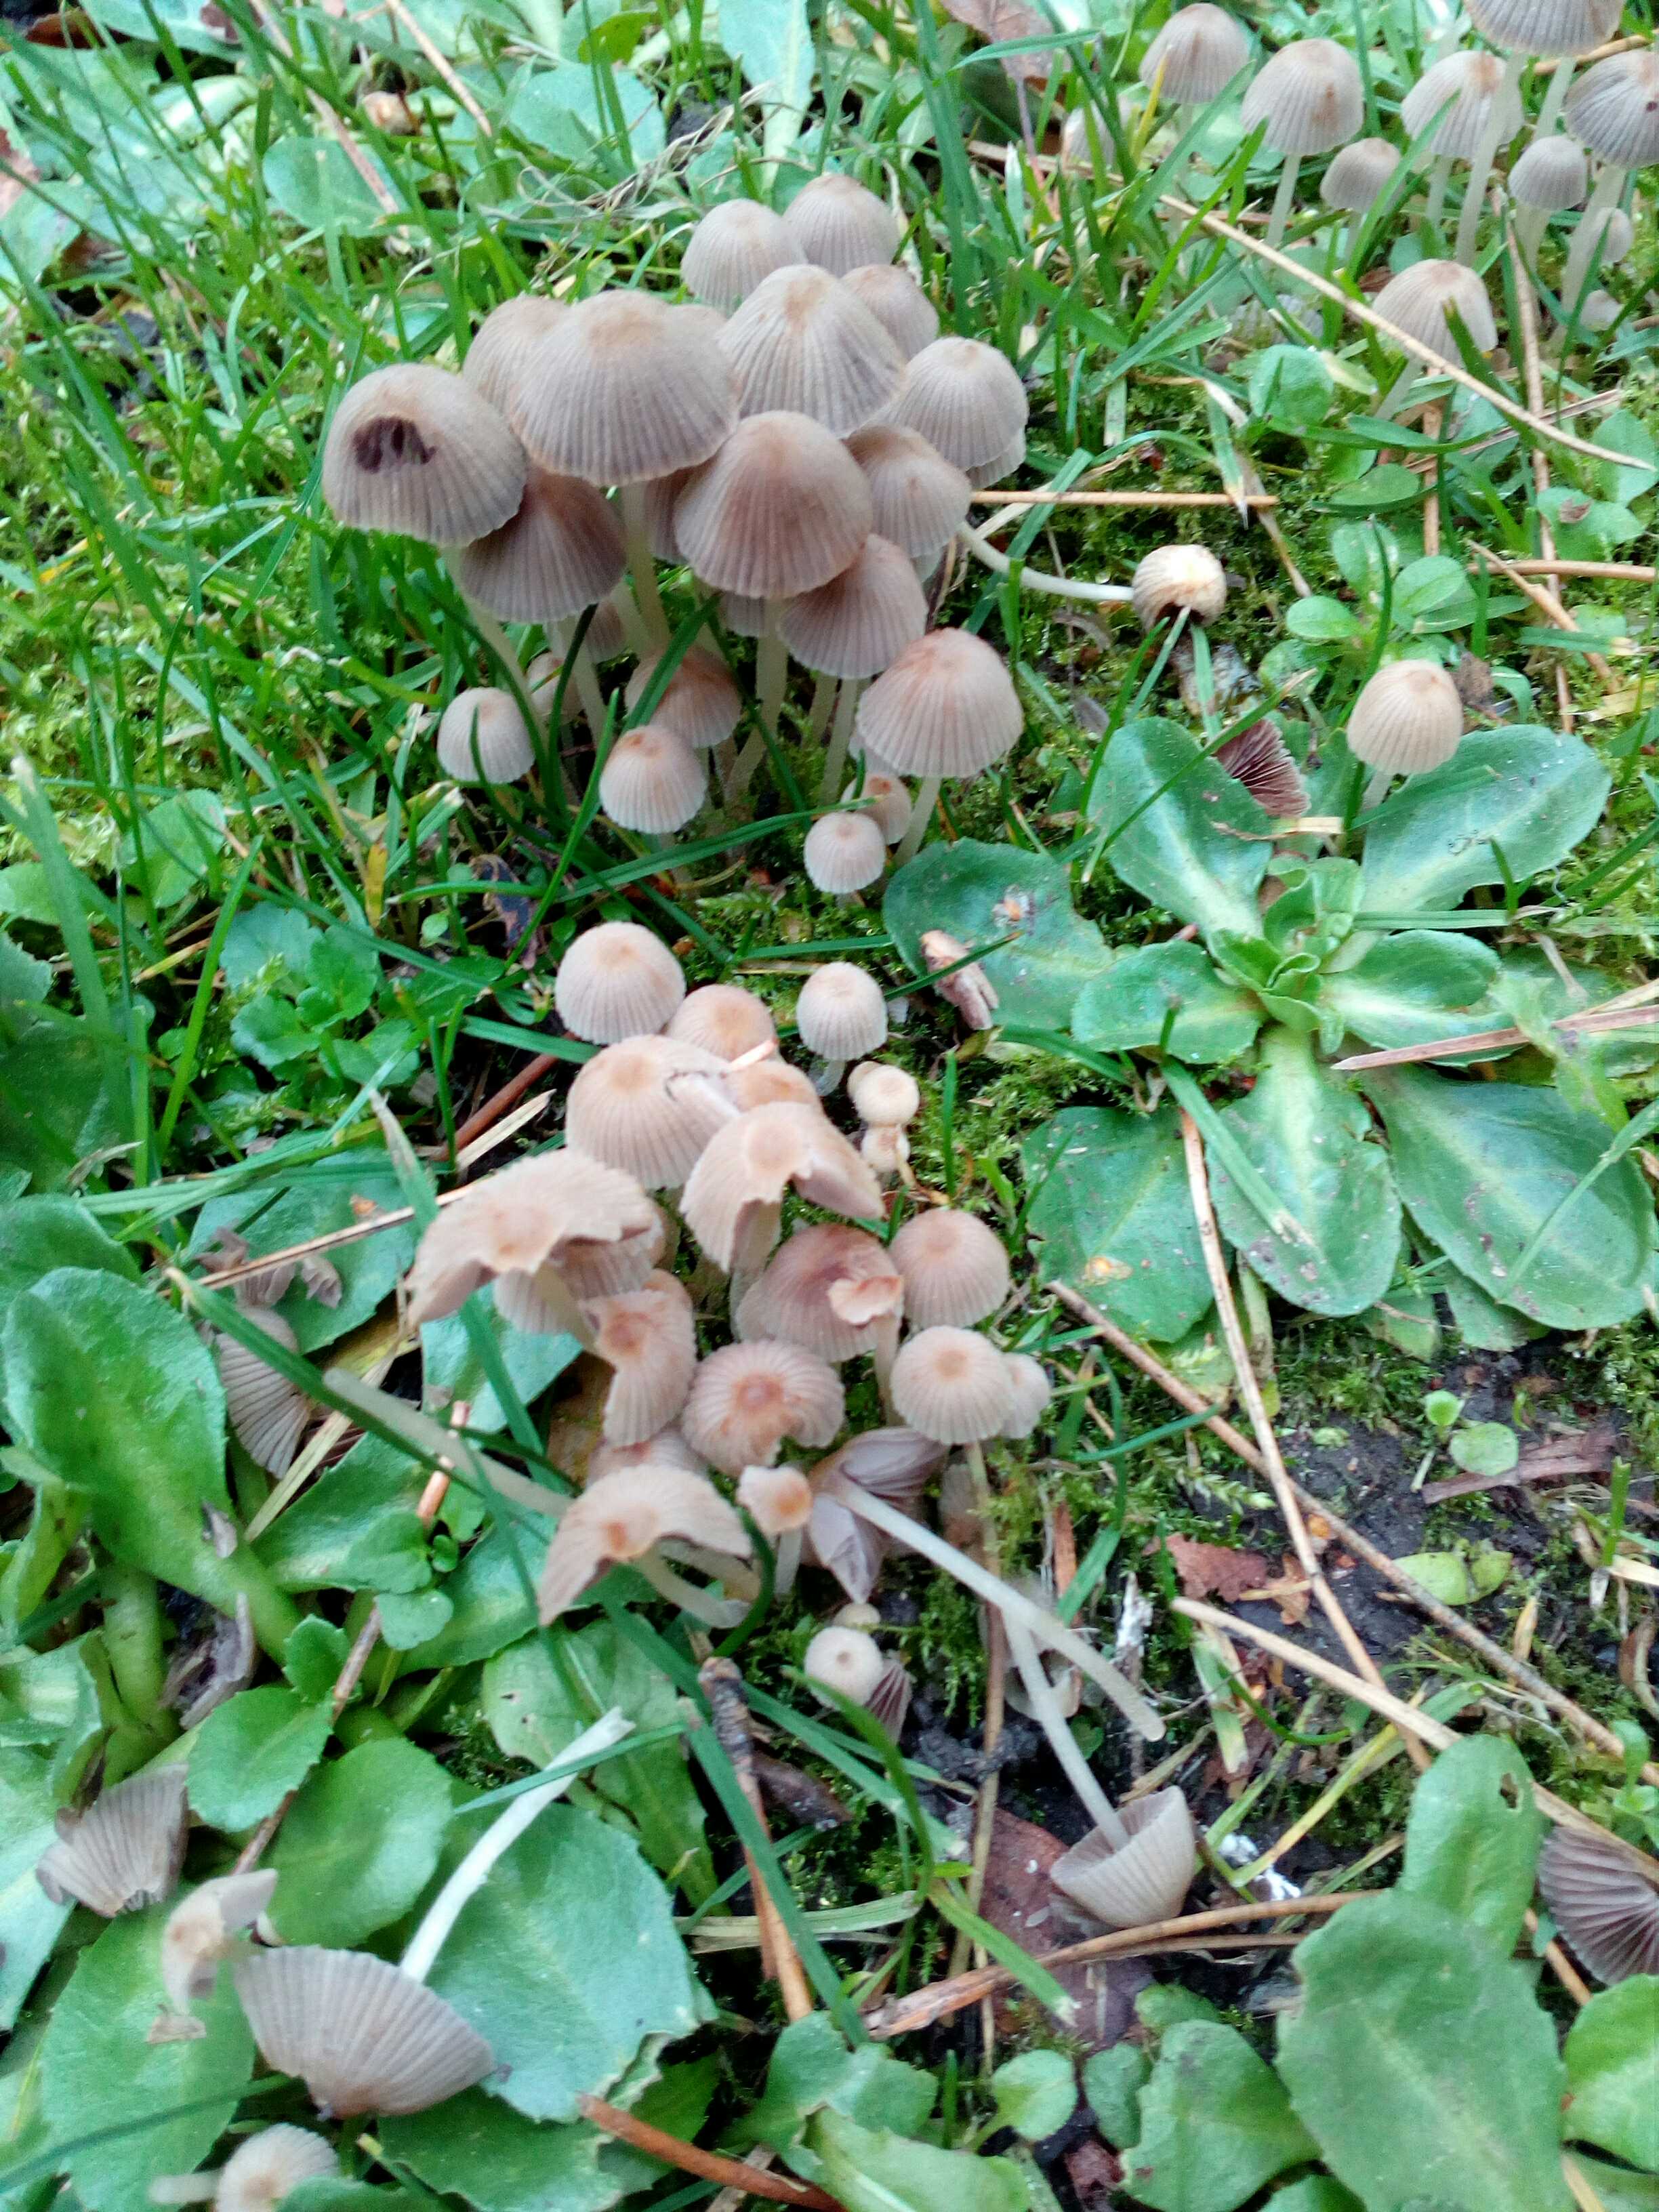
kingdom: Fungi
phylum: Basidiomycota
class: Agaricomycetes
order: Agaricales
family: Psathyrellaceae
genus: Coprinellus
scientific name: Coprinellus disseminatus
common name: bredsået blækhat
